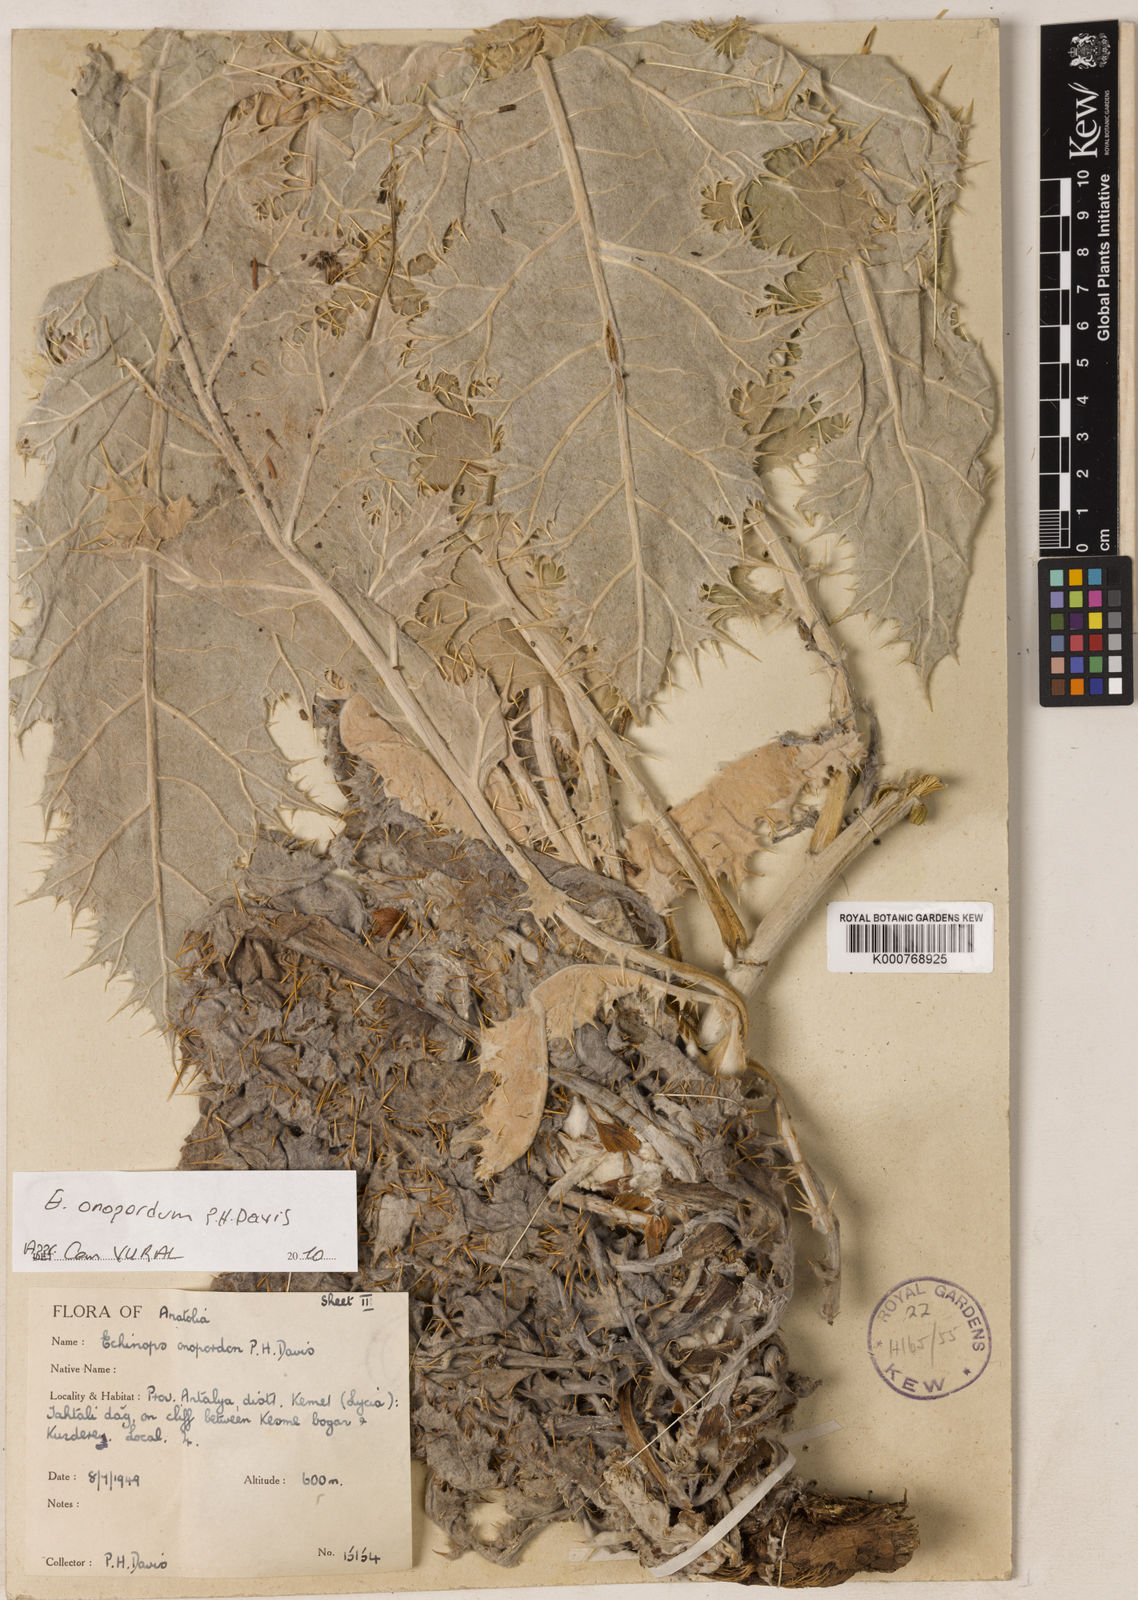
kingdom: Plantae
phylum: Tracheophyta
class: Magnoliopsida
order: Asterales
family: Asteraceae
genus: Echinops
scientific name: Echinops onopordum
